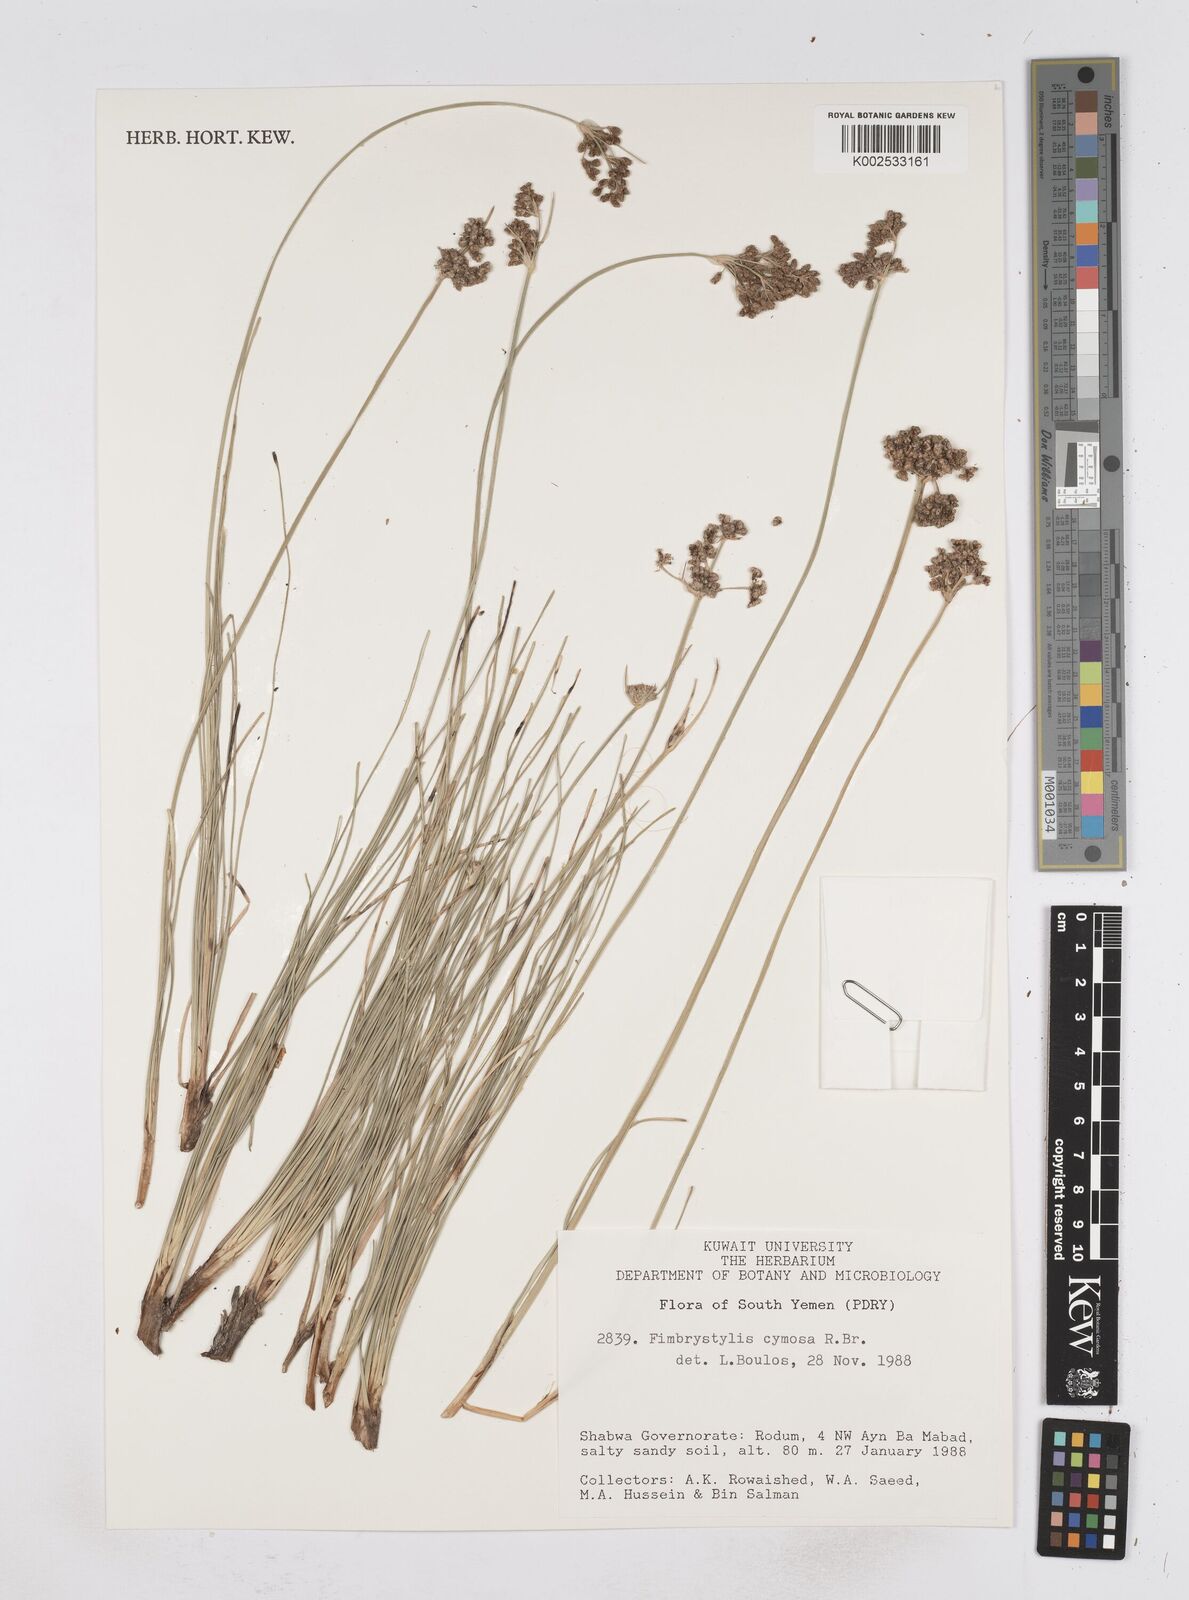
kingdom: Plantae
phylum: Tracheophyta
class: Liliopsida
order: Poales
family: Cyperaceae
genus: Fimbristylis
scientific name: Fimbristylis cymosa
